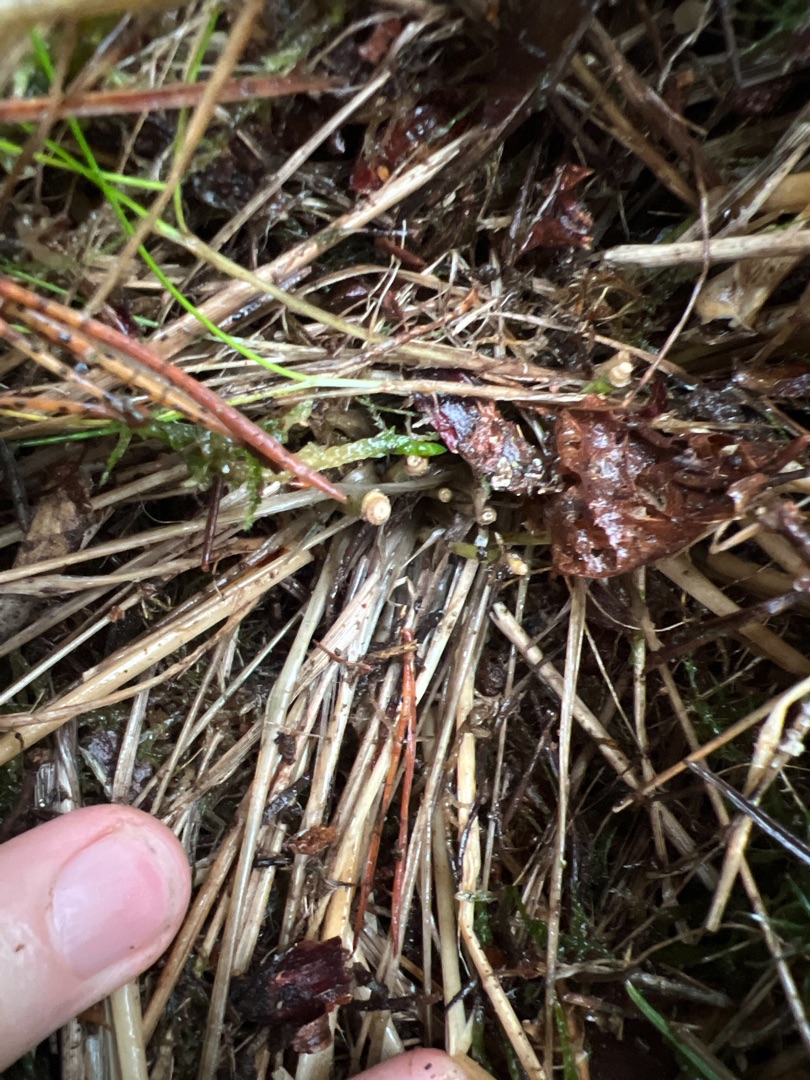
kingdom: Plantae
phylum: Tracheophyta
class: Liliopsida
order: Poales
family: Poaceae
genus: Molinia
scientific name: Molinia caerulea
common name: Blåtop
